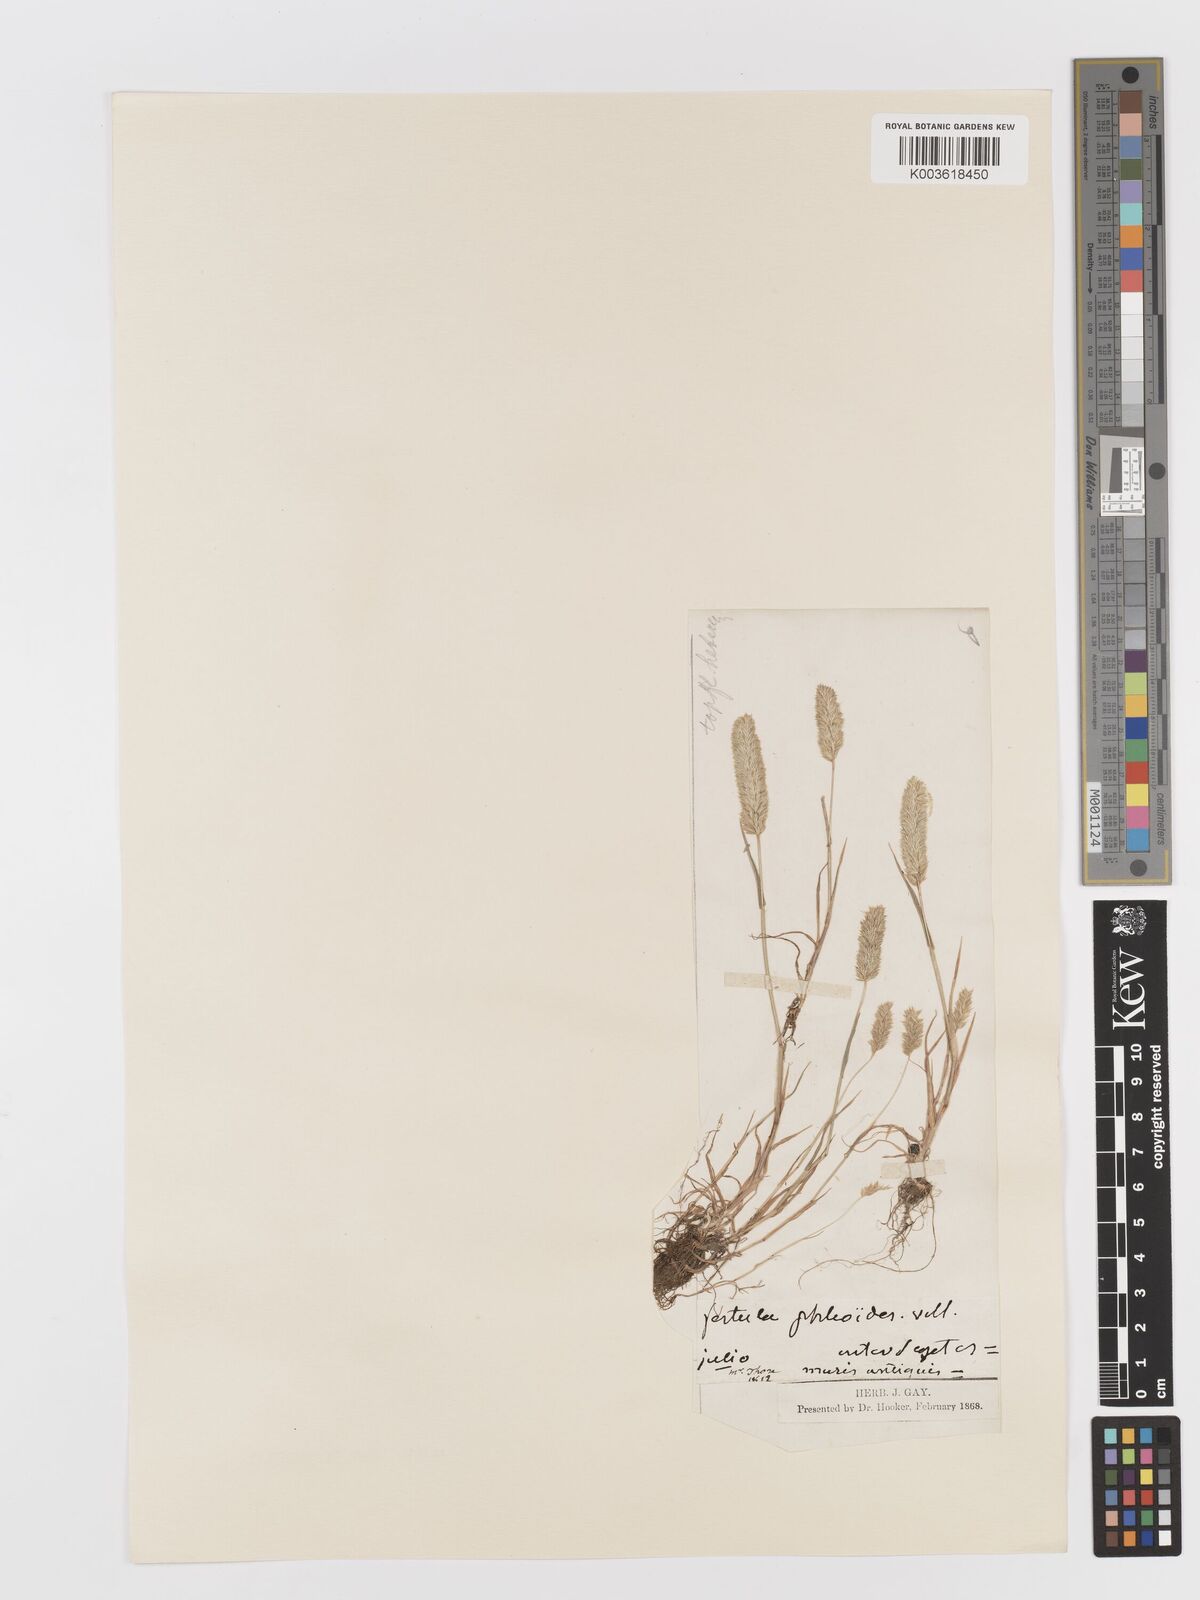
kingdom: Plantae
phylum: Tracheophyta
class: Liliopsida
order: Poales
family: Poaceae
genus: Rostraria
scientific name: Rostraria cristata
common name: Mediterranean hair-grass
